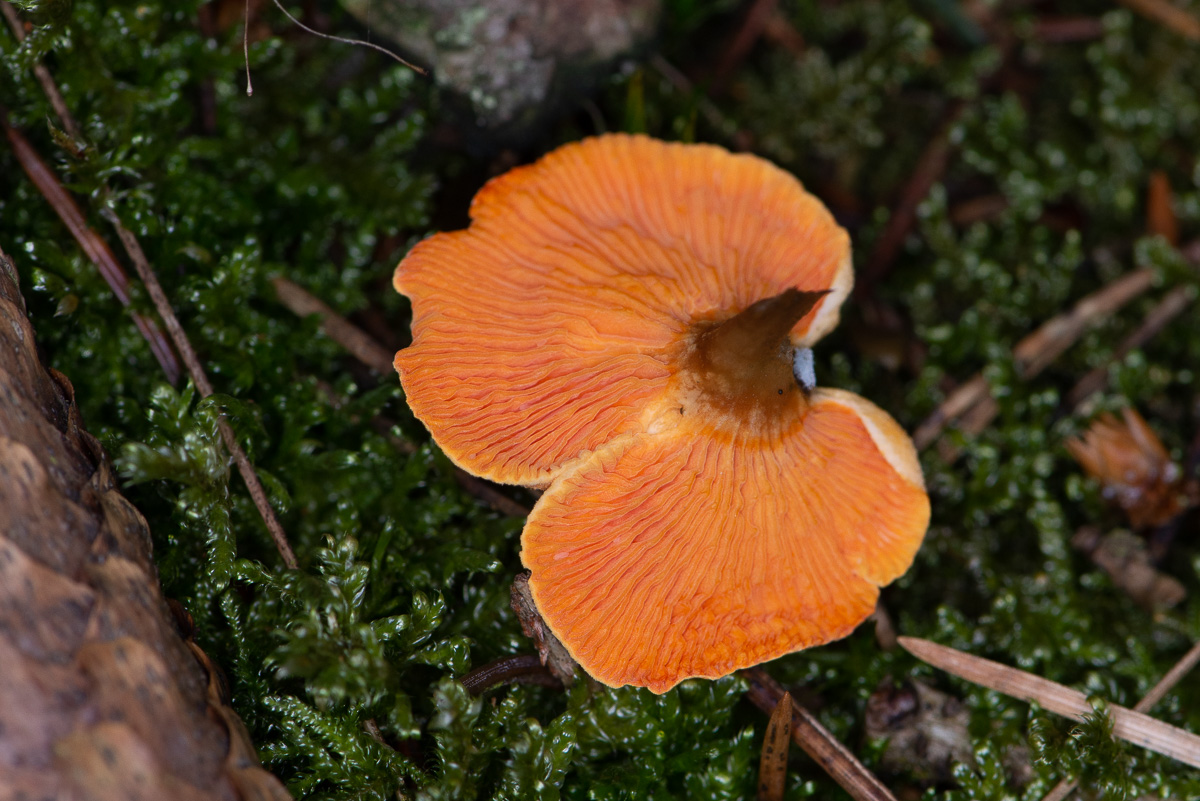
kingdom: Fungi
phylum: Basidiomycota
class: Agaricomycetes
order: Boletales
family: Hygrophoropsidaceae
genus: Hygrophoropsis
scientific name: Hygrophoropsis aurantiaca
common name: almindelig orangekantarel
